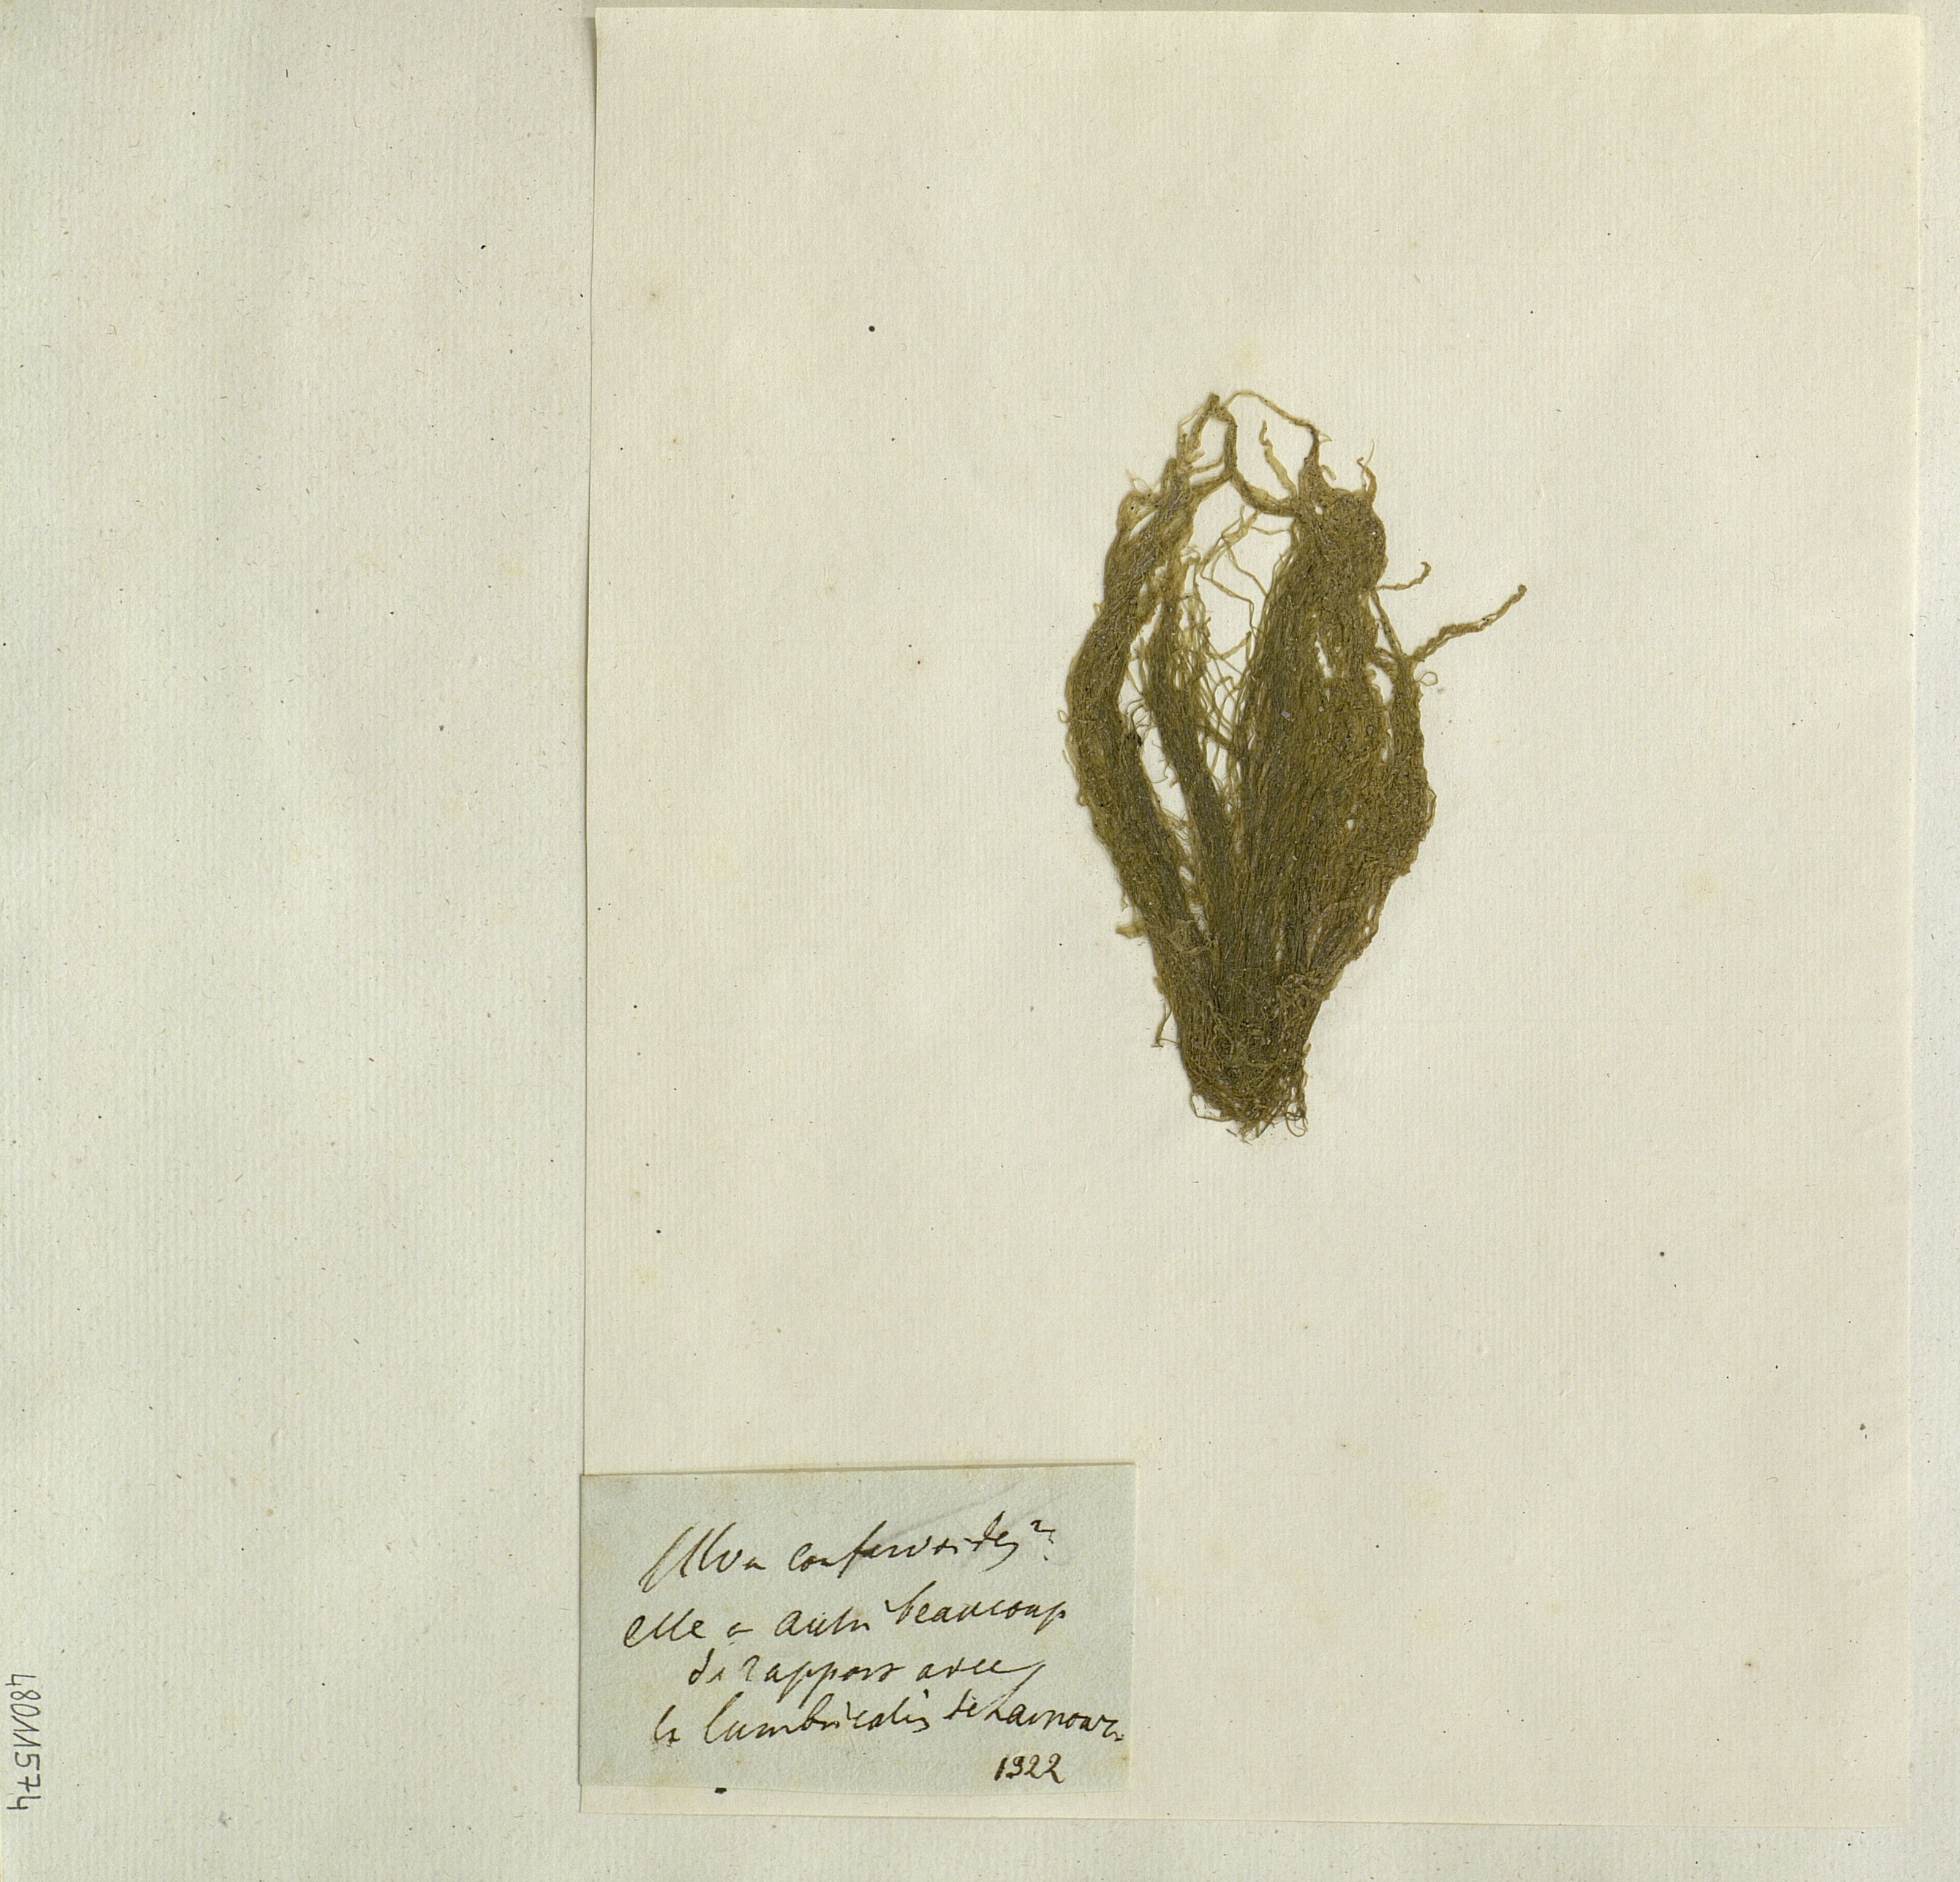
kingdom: Plantae
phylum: Chlorophyta
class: Ulvophyceae
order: Cladophorales
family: Cladophoraceae
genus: Chaetomorpha
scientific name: Chaetomorpha melagonium
